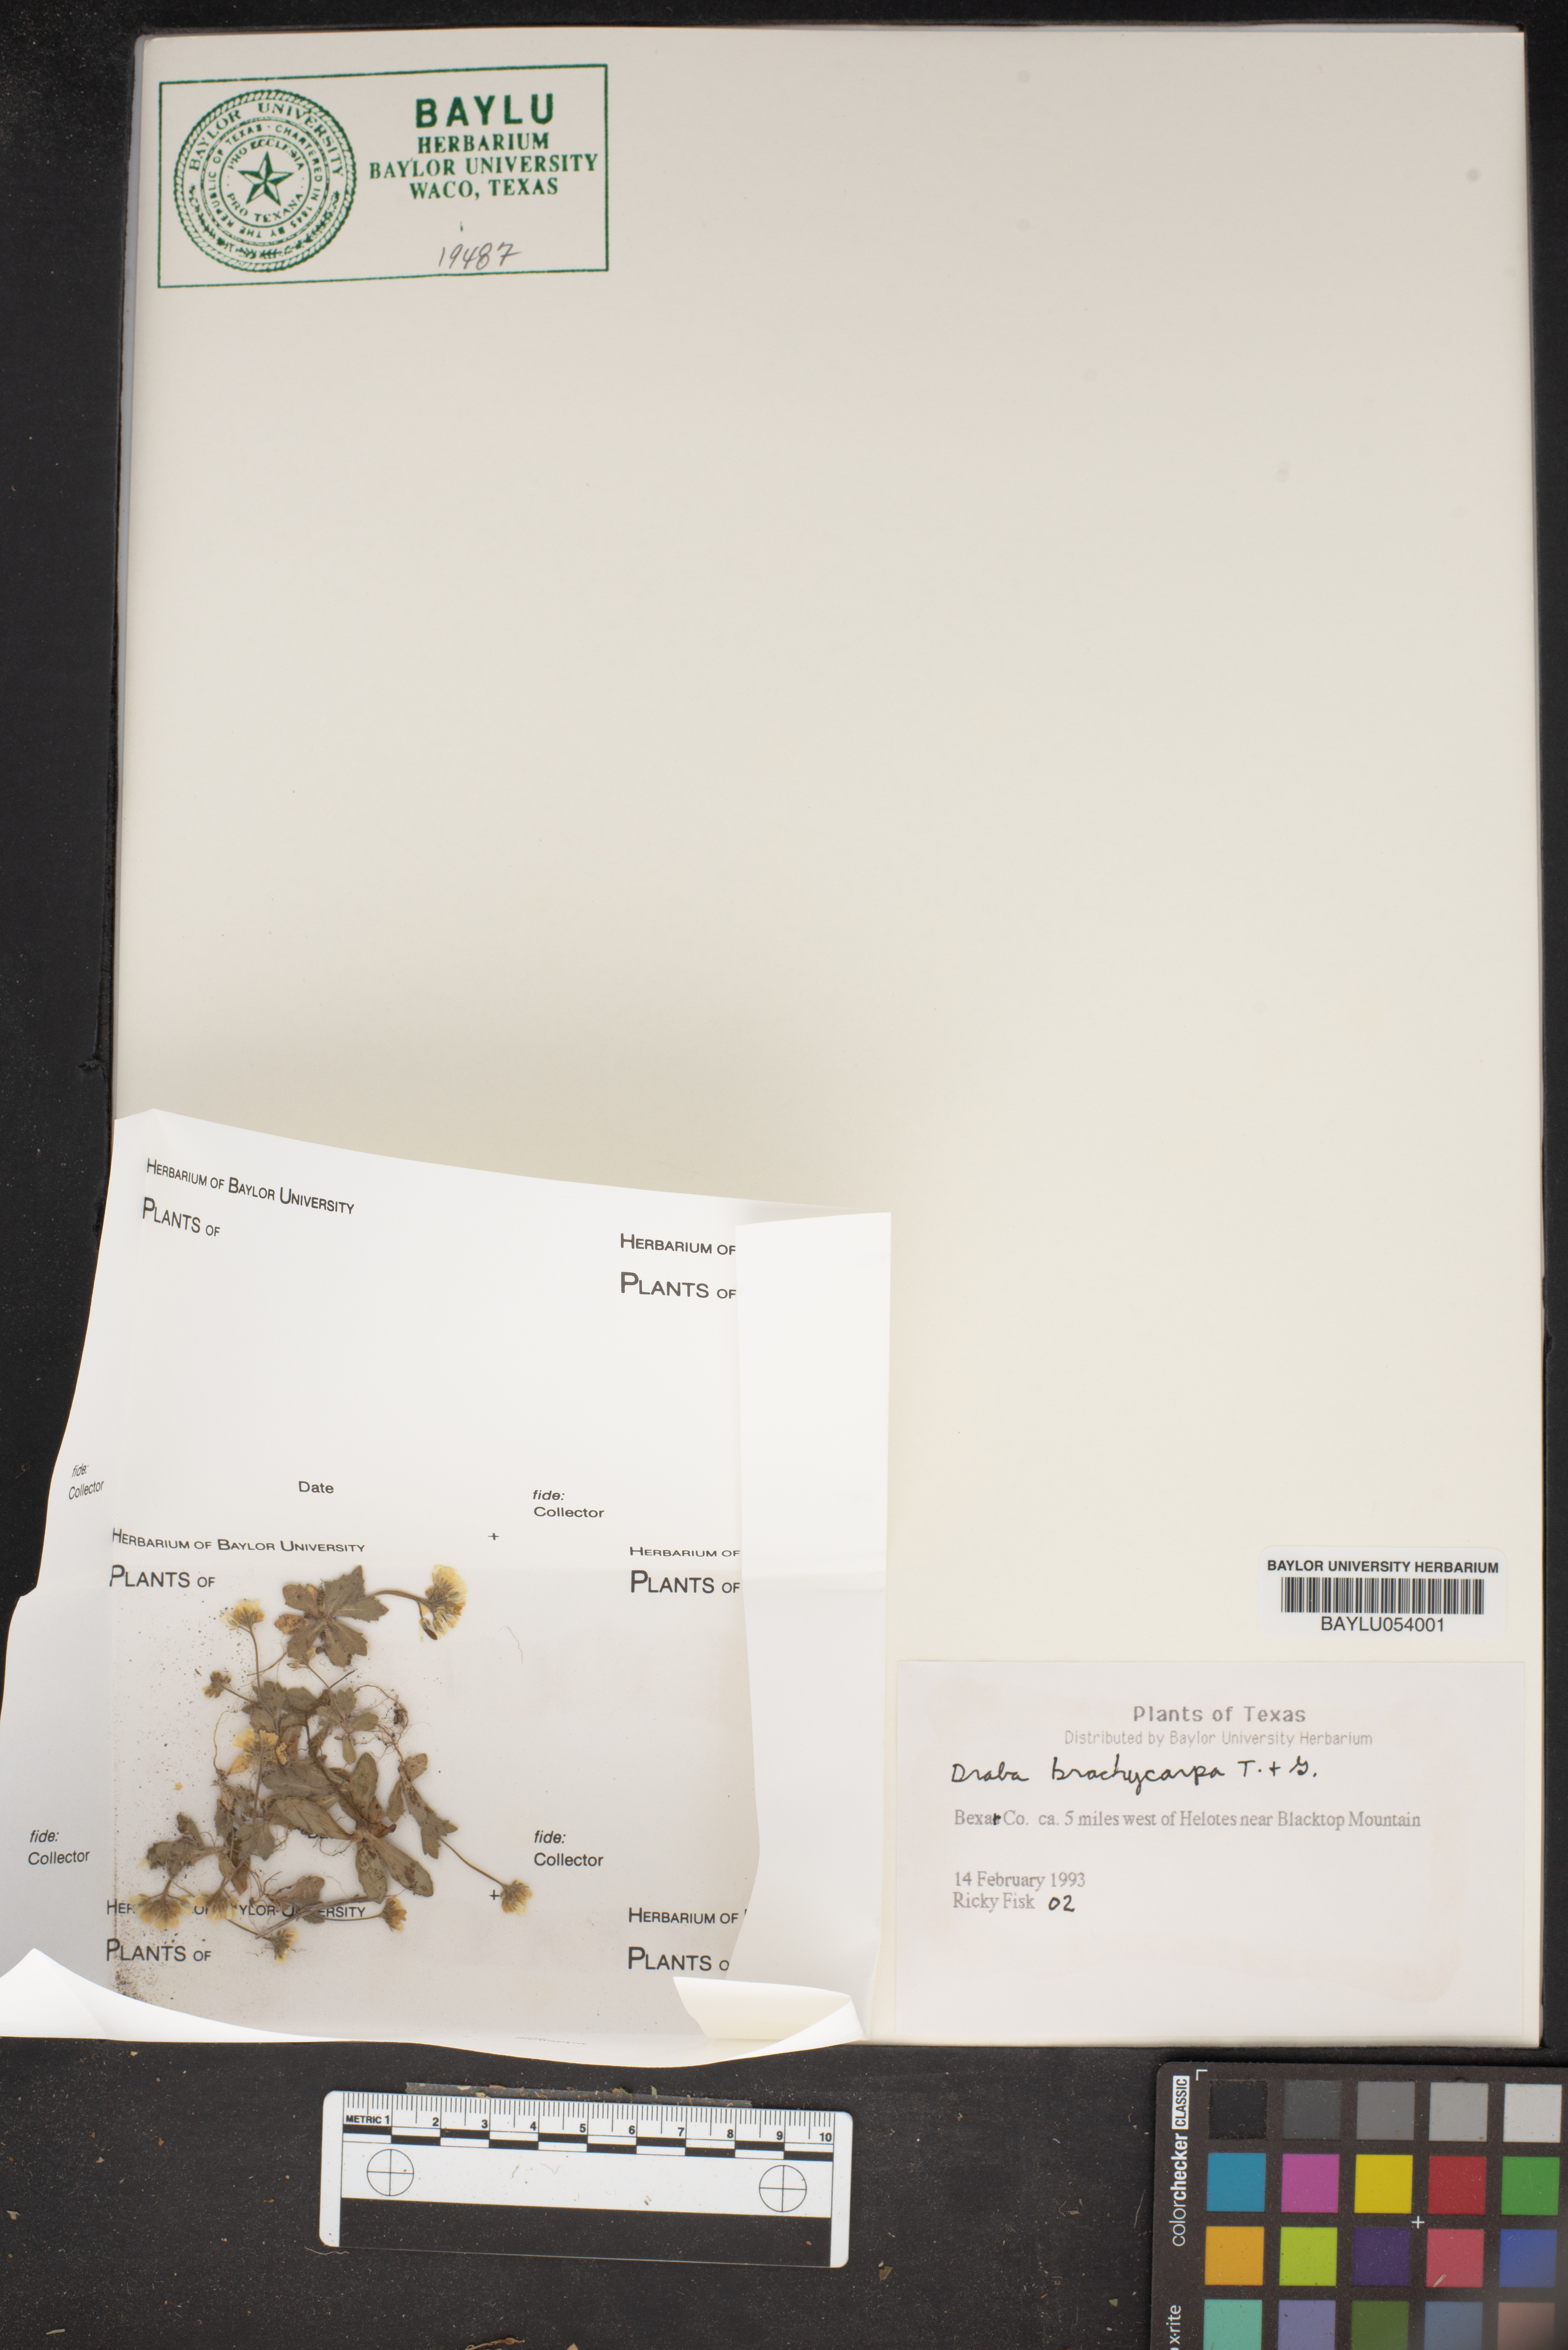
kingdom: Plantae
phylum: Tracheophyta
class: Magnoliopsida
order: Brassicales
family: Brassicaceae
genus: Abdra
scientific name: Abdra brachycarpa
